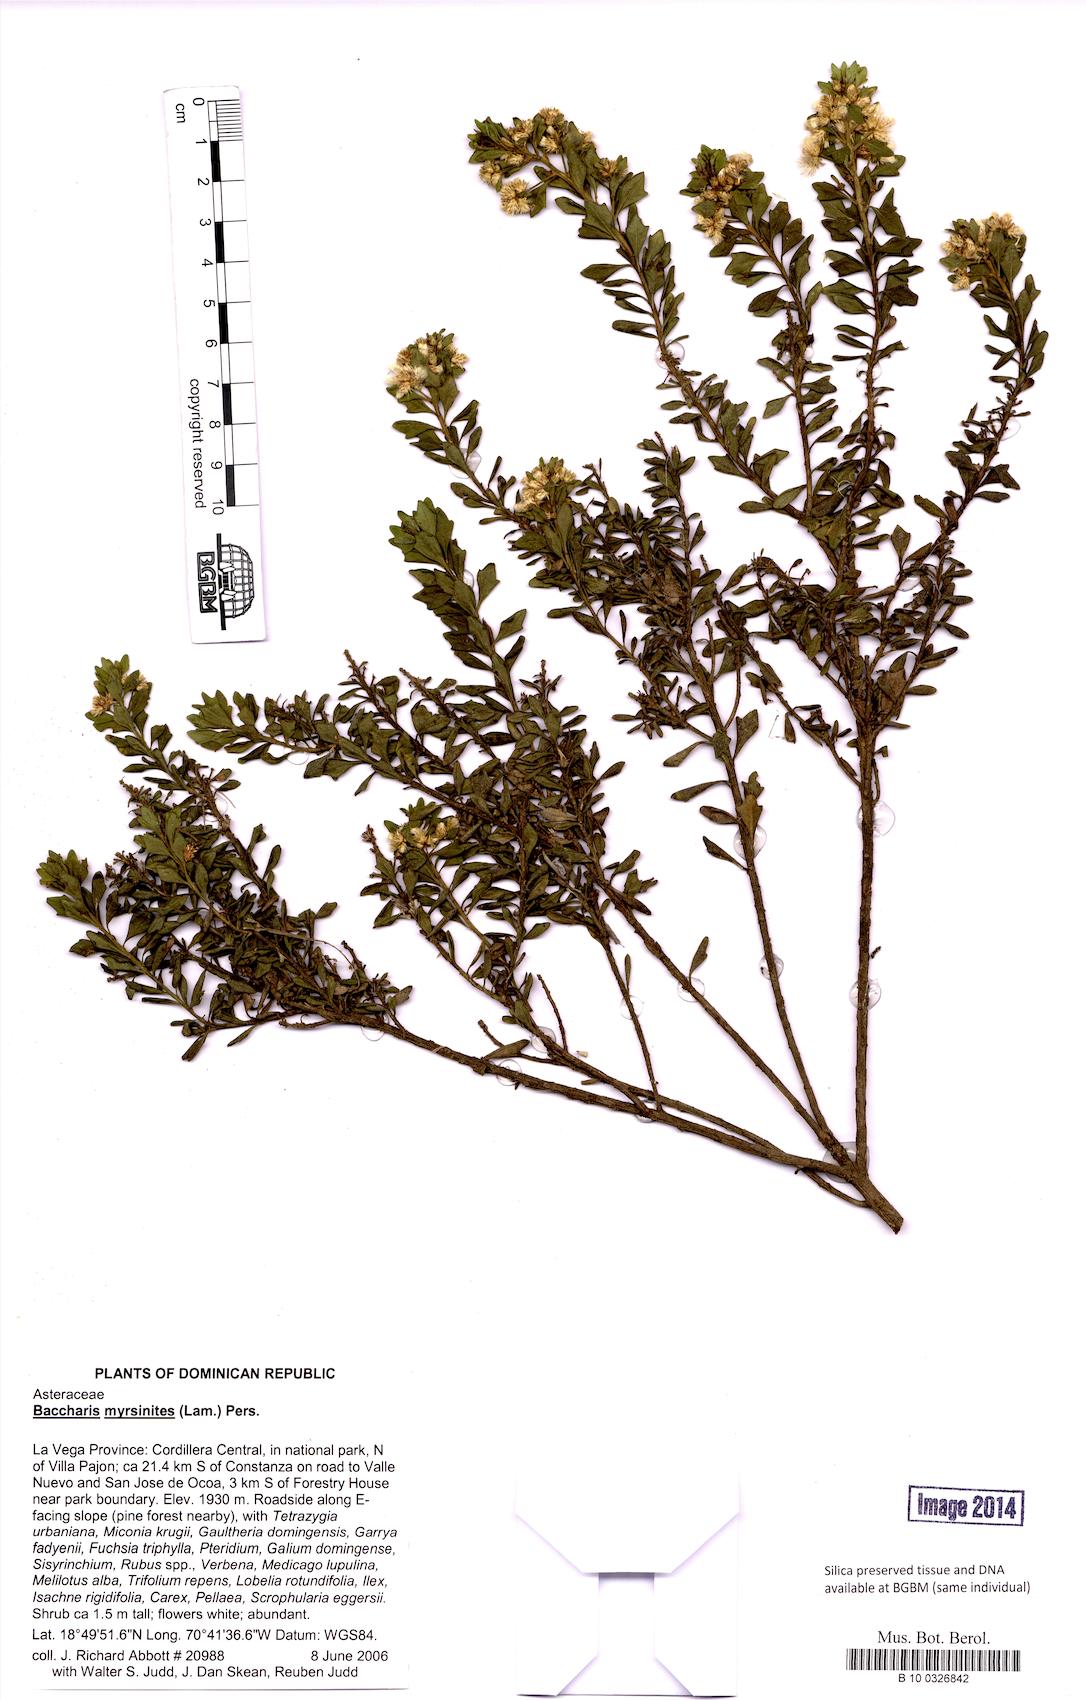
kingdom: Plantae
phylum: Tracheophyta
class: Magnoliopsida
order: Asterales
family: Asteraceae
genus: Baccharis
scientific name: Baccharis myrsinites
